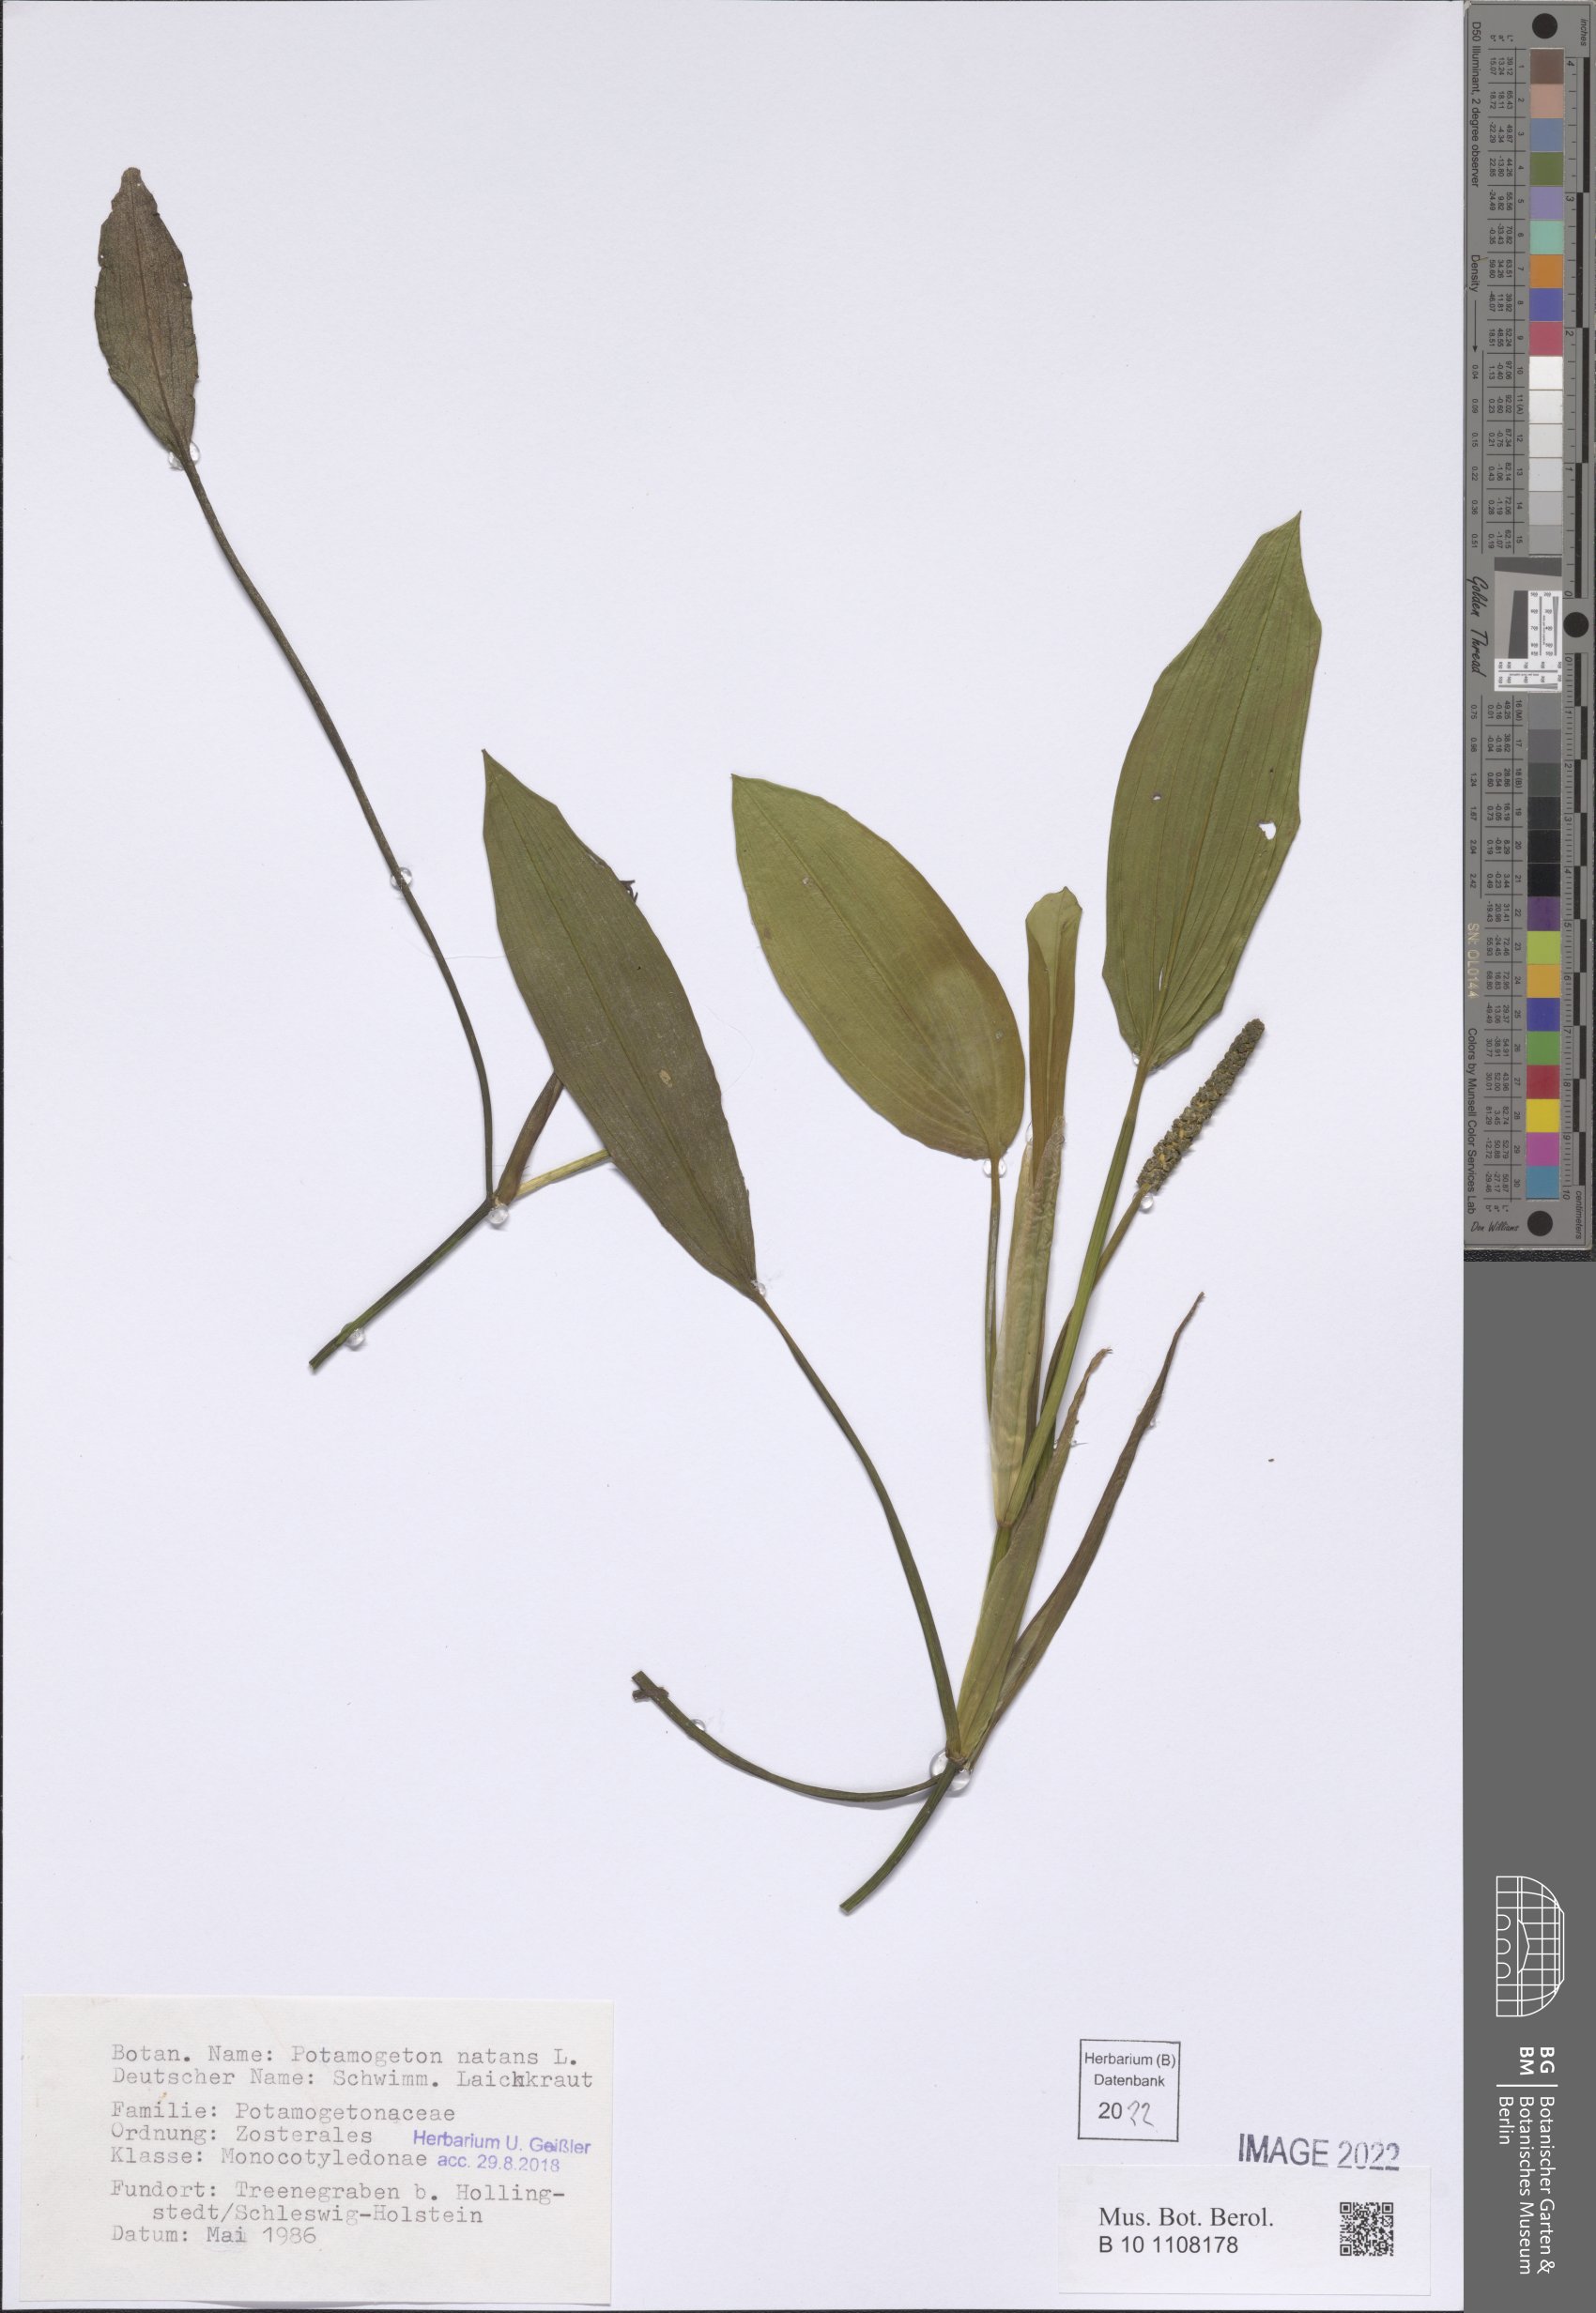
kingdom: Plantae
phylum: Tracheophyta
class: Liliopsida
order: Alismatales
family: Potamogetonaceae
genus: Potamogeton
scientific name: Potamogeton natans
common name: Broad-leaved pondweed
